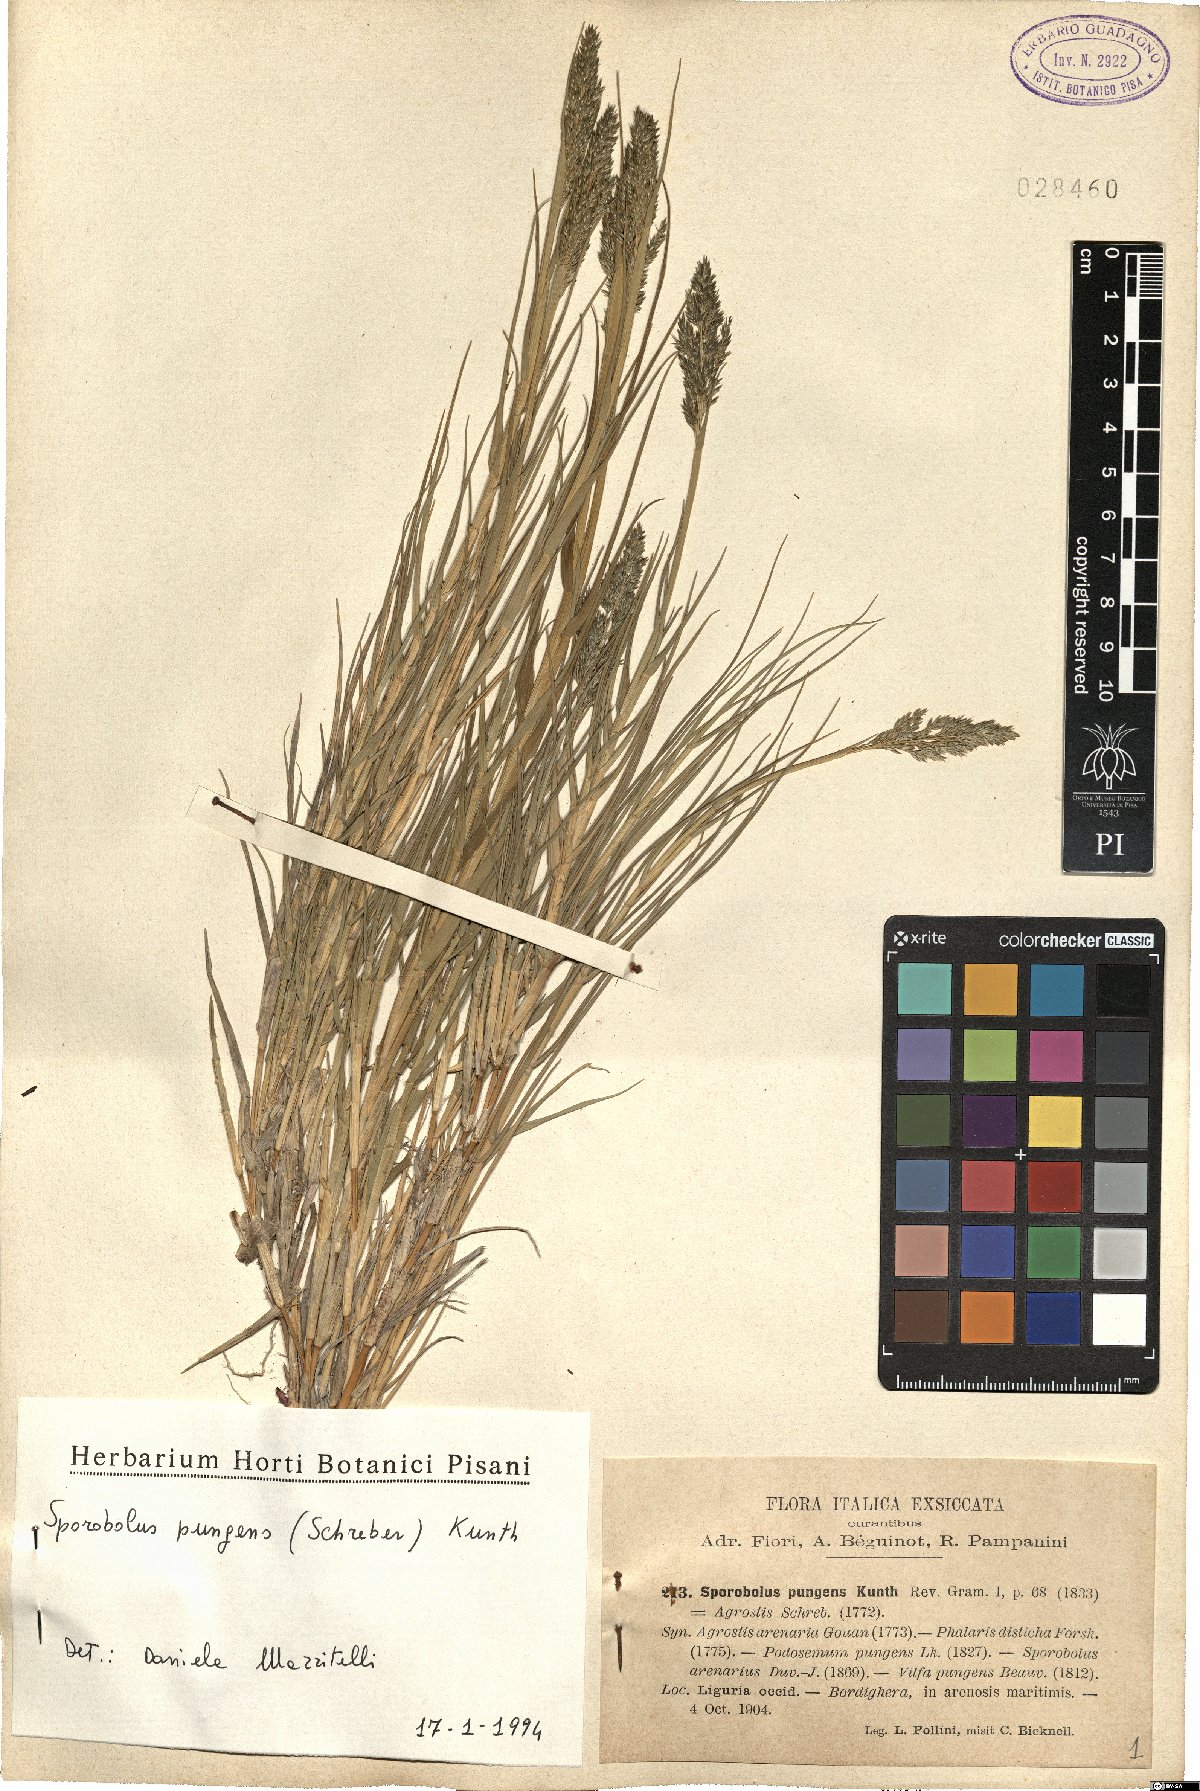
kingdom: Plantae
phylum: Tracheophyta
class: Liliopsida
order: Poales
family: Poaceae
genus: Sporobolus
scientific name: Sporobolus pungens
